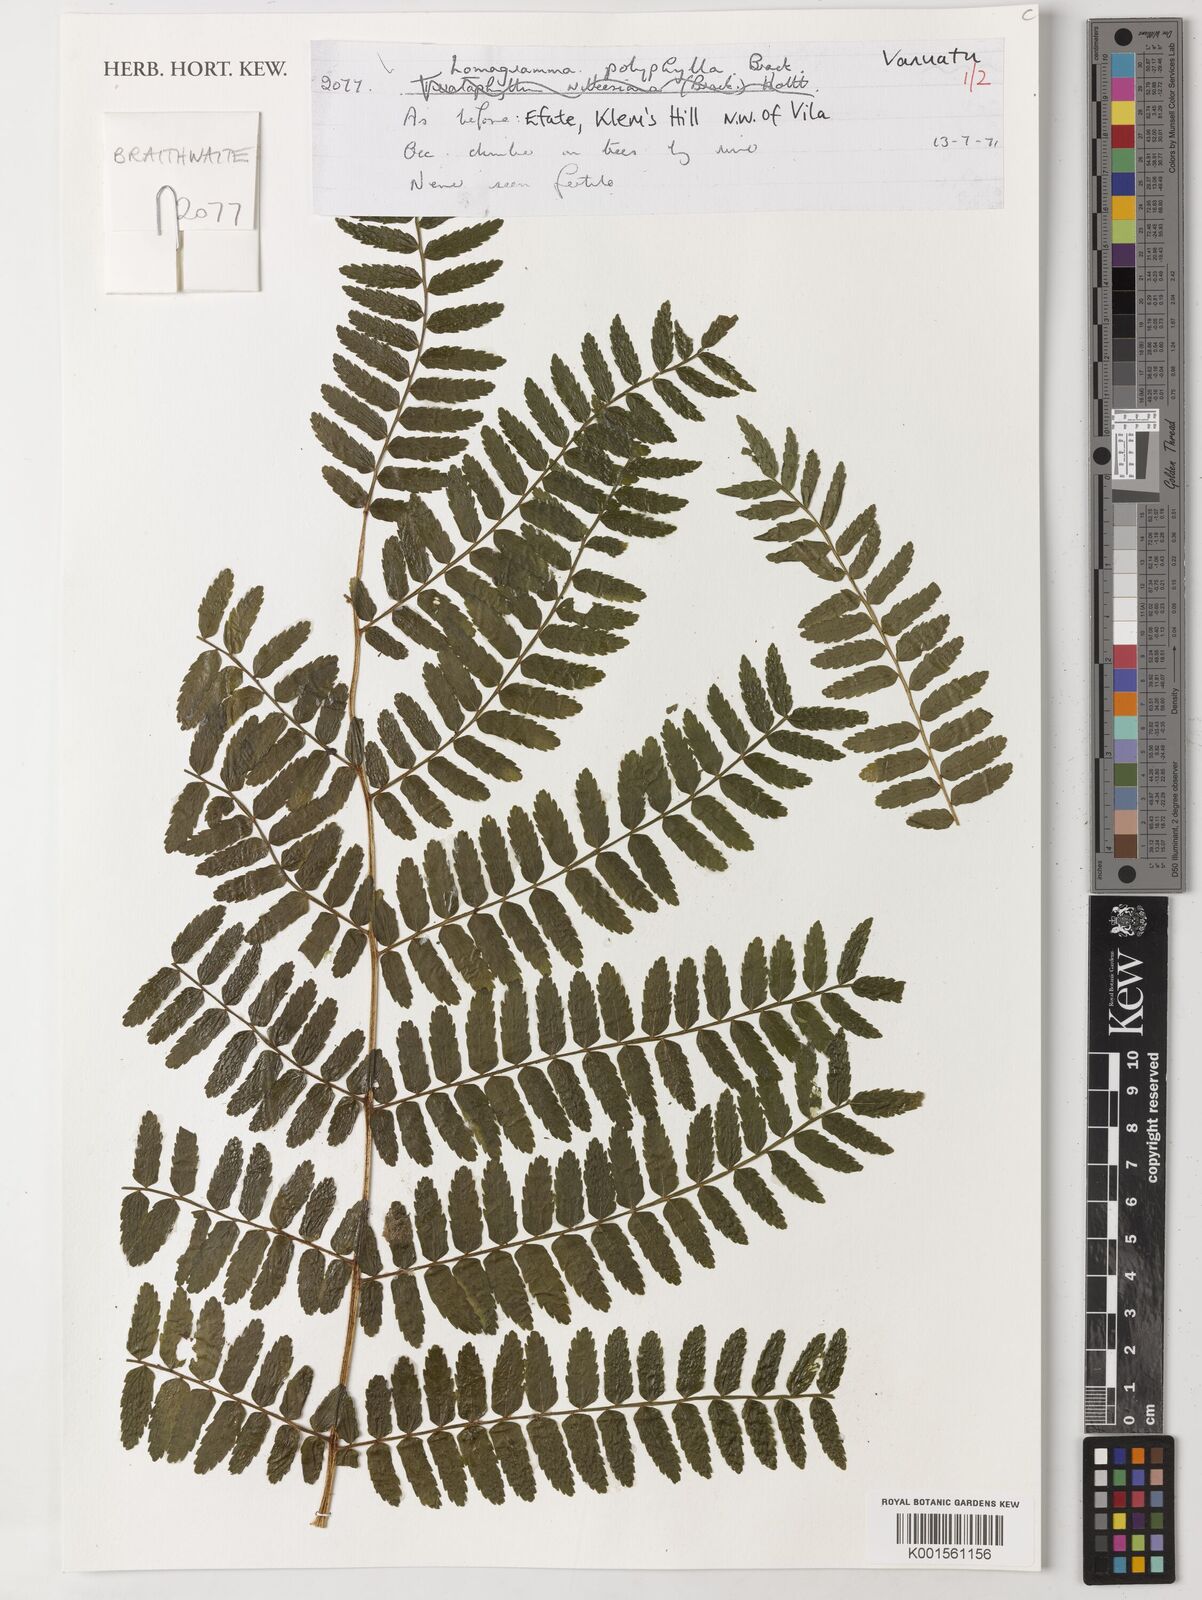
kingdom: Plantae
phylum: Tracheophyta
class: Polypodiopsida
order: Polypodiales
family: Dryopteridaceae
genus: Lomagramma
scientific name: Lomagramma polyphylla
